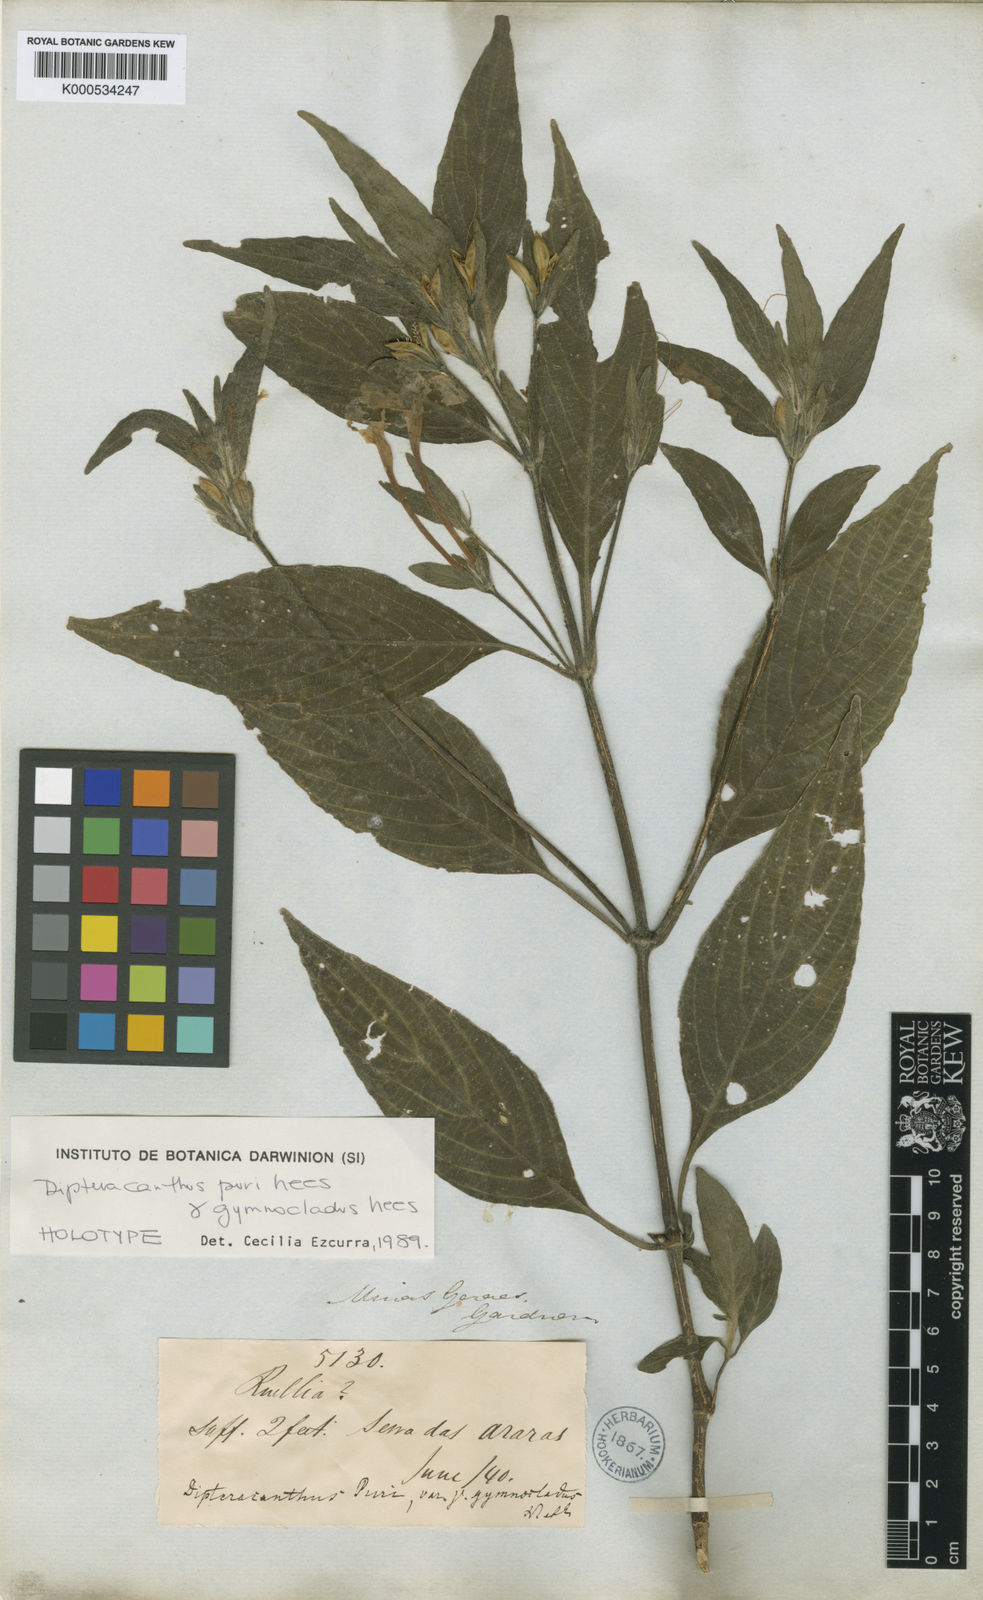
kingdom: Plantae
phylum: Tracheophyta
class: Magnoliopsida
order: Lamiales
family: Acanthaceae
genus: Ruellia
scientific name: Ruellia jussieuoides
